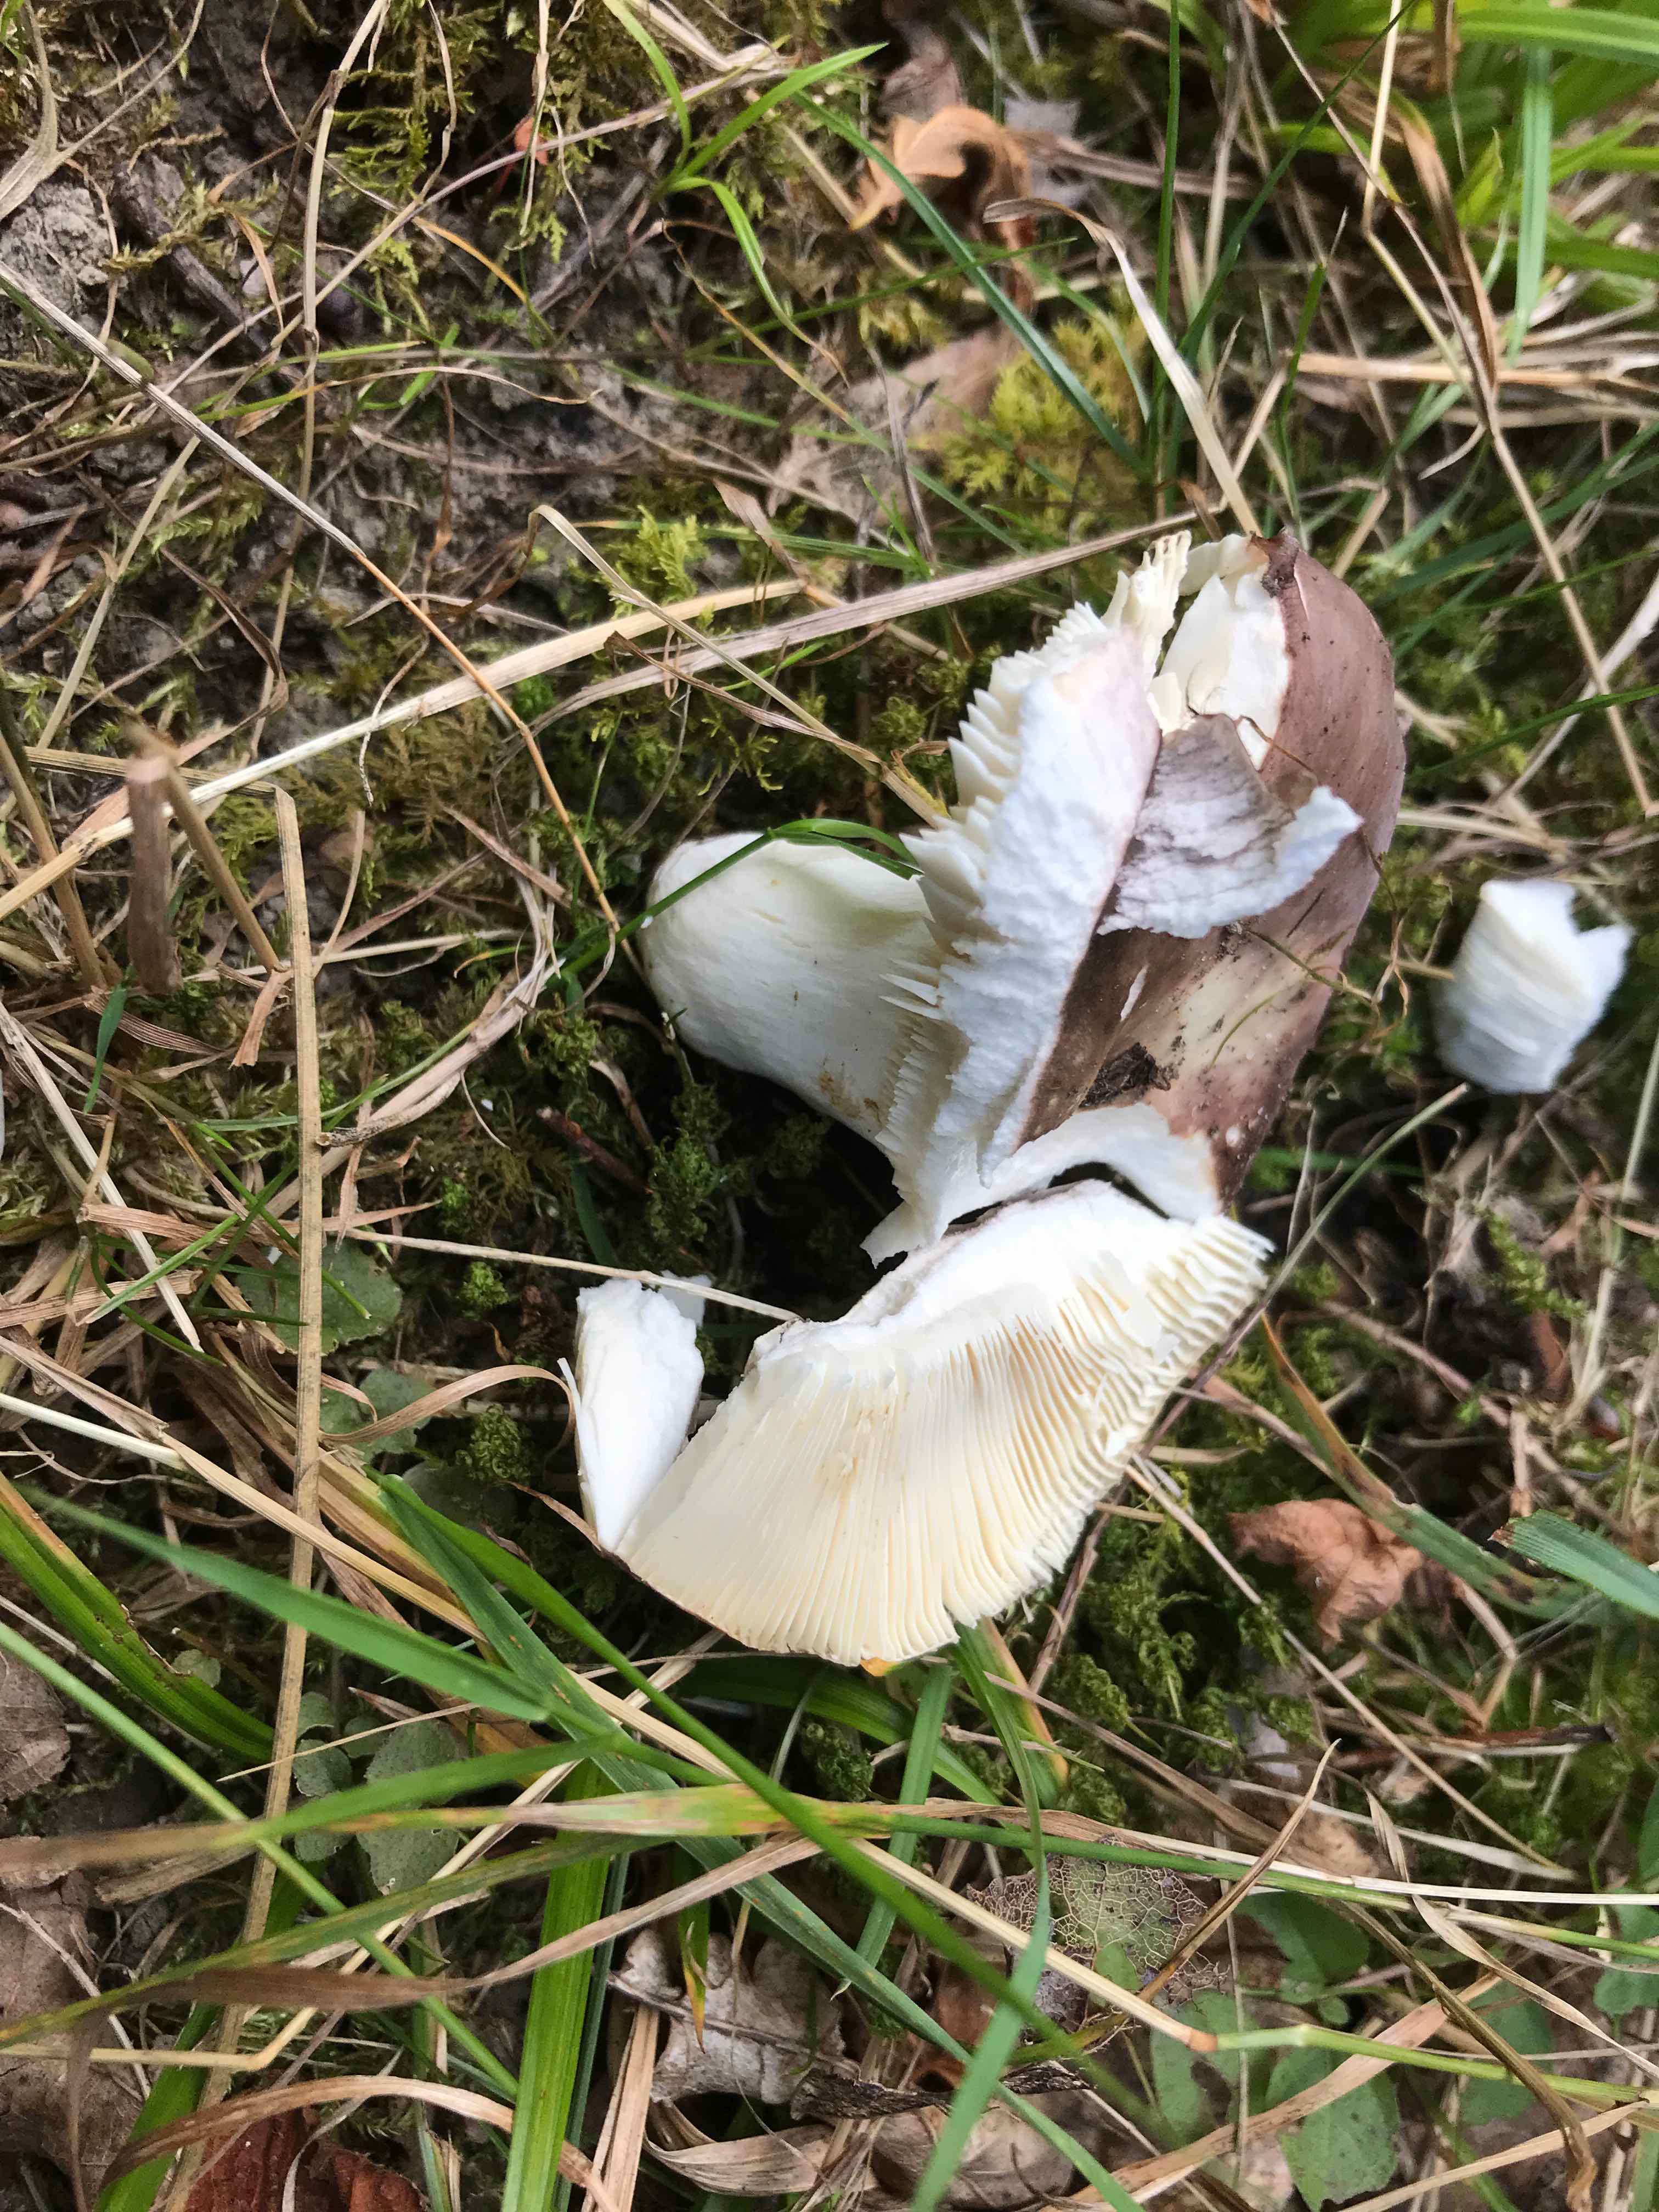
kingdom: Fungi
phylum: Basidiomycota
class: Agaricomycetes
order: Russulales
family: Russulaceae
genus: Russula
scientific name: Russula cyanoxantha
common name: broget skørhat
